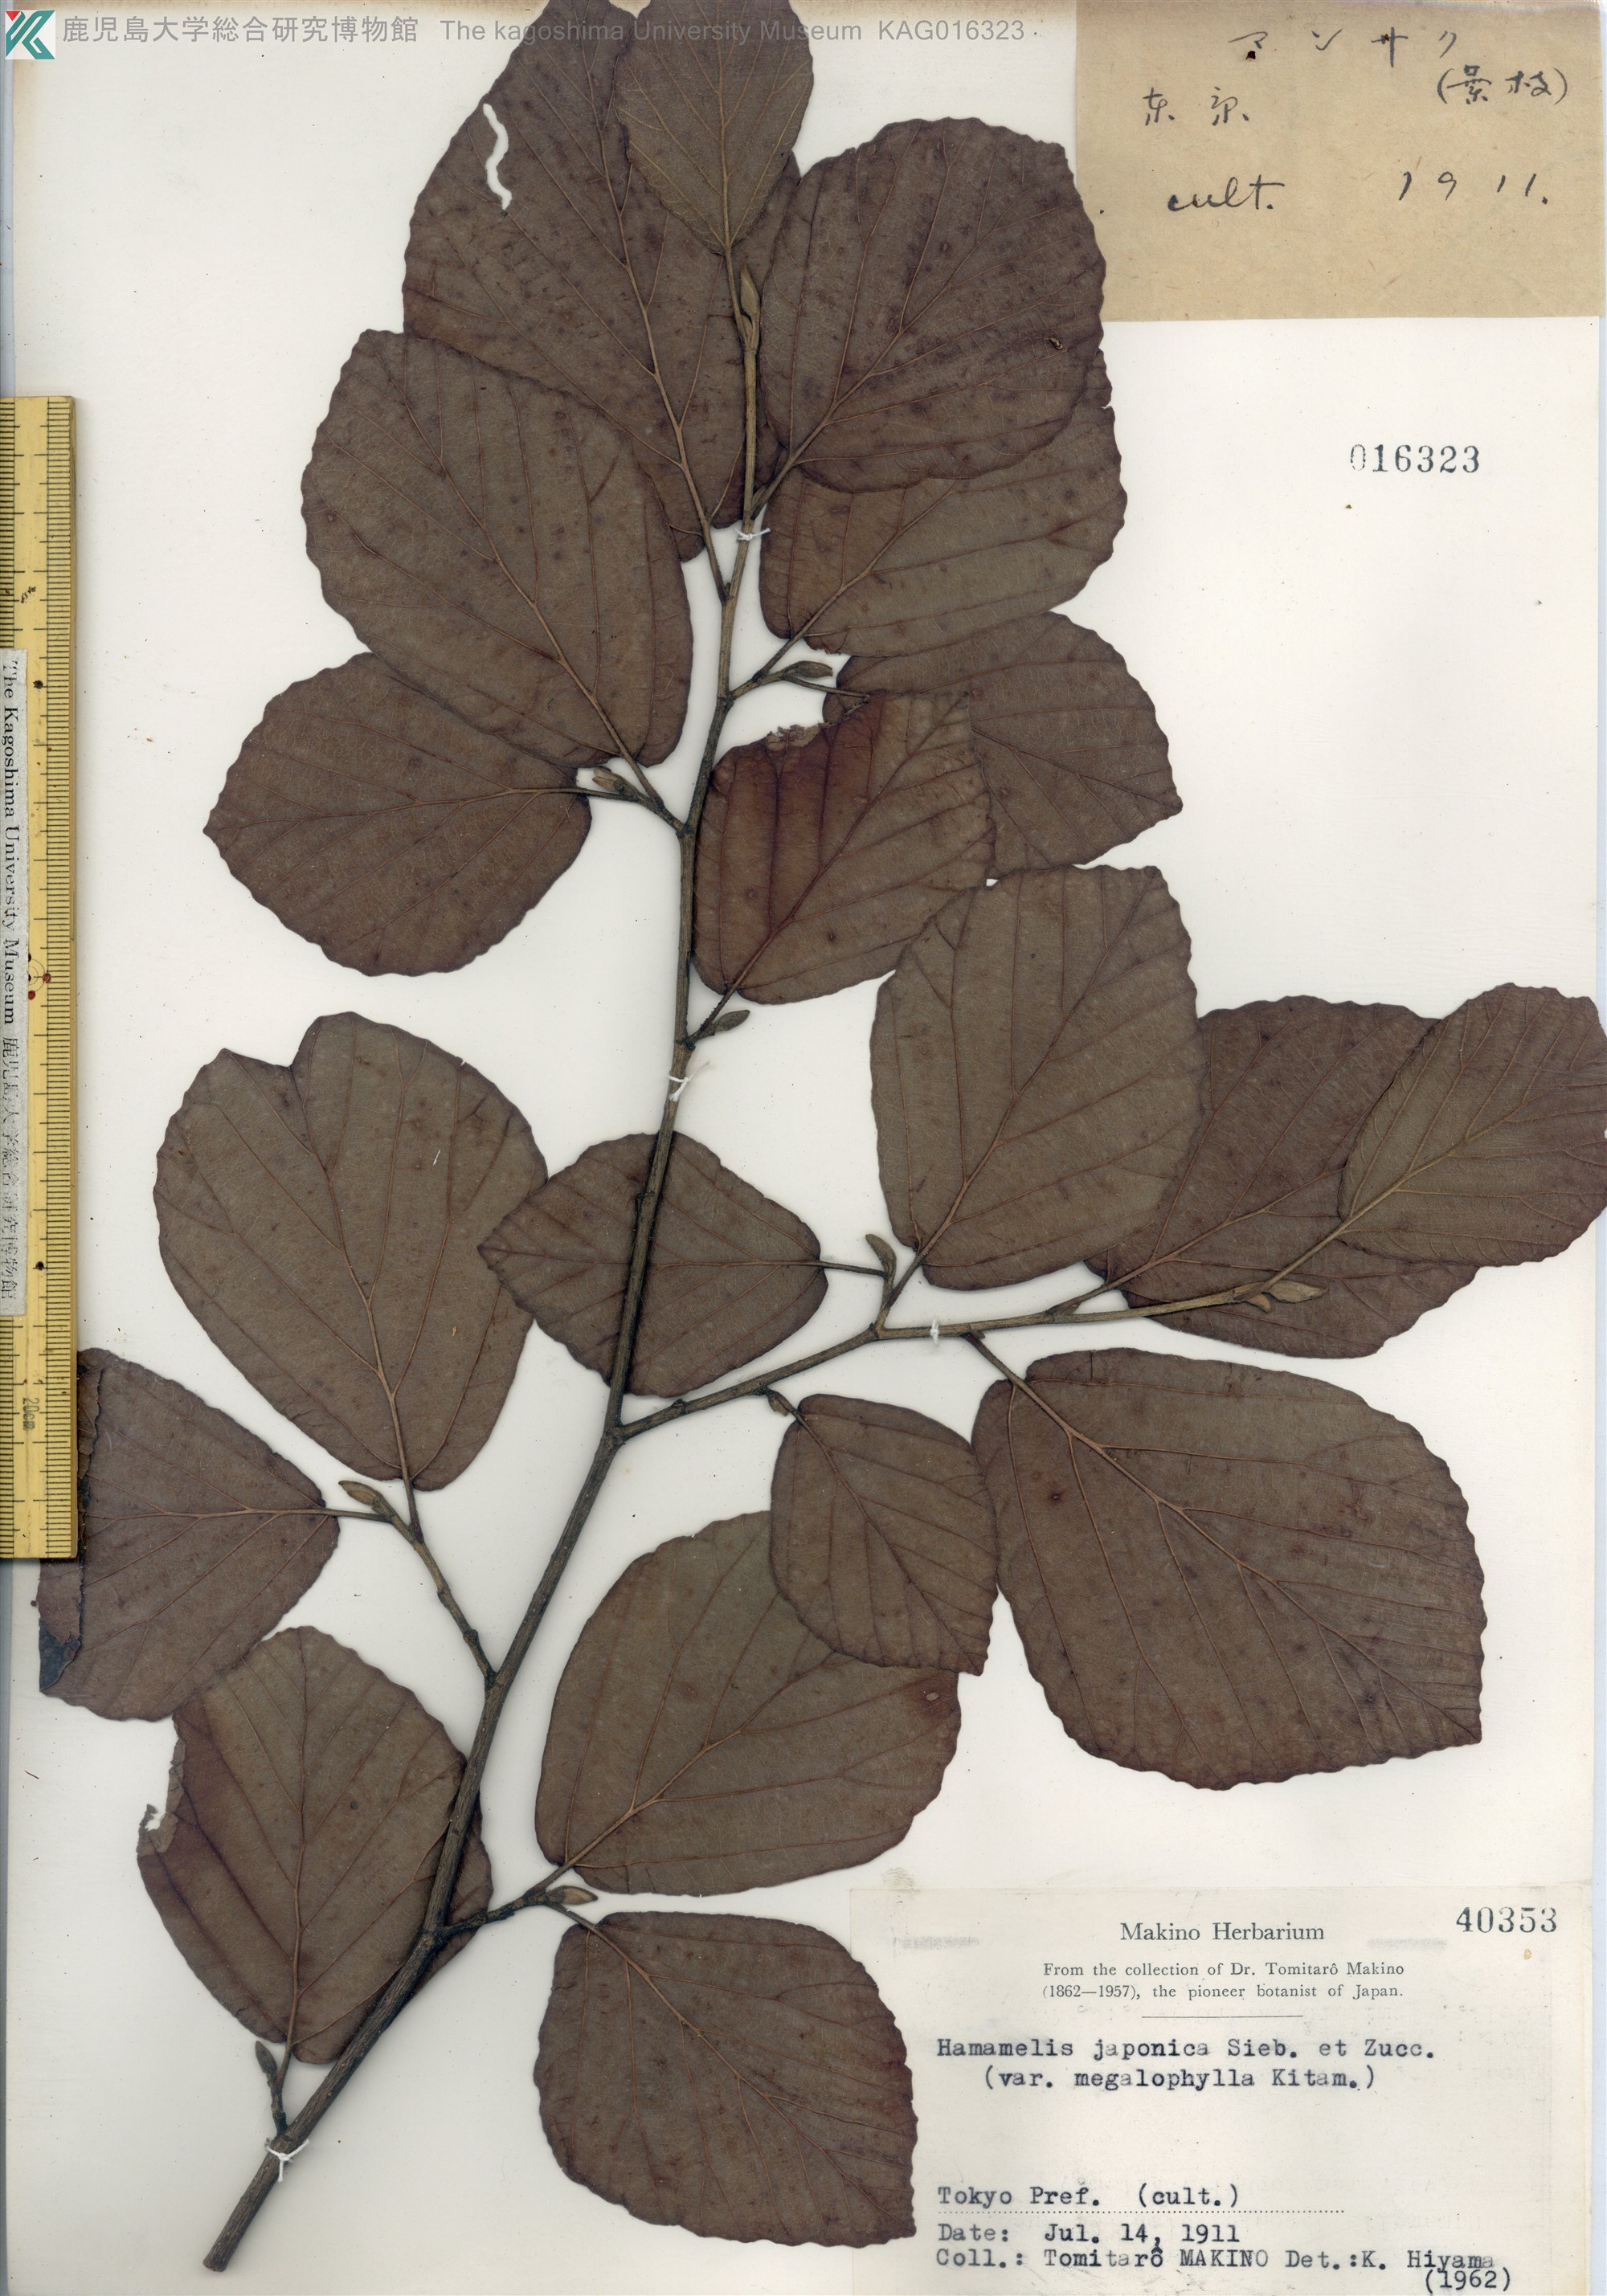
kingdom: Plantae
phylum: Tracheophyta
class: Magnoliopsida
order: Saxifragales
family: Hamamelidaceae
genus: Hamamelis
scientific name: Hamamelis japonica
